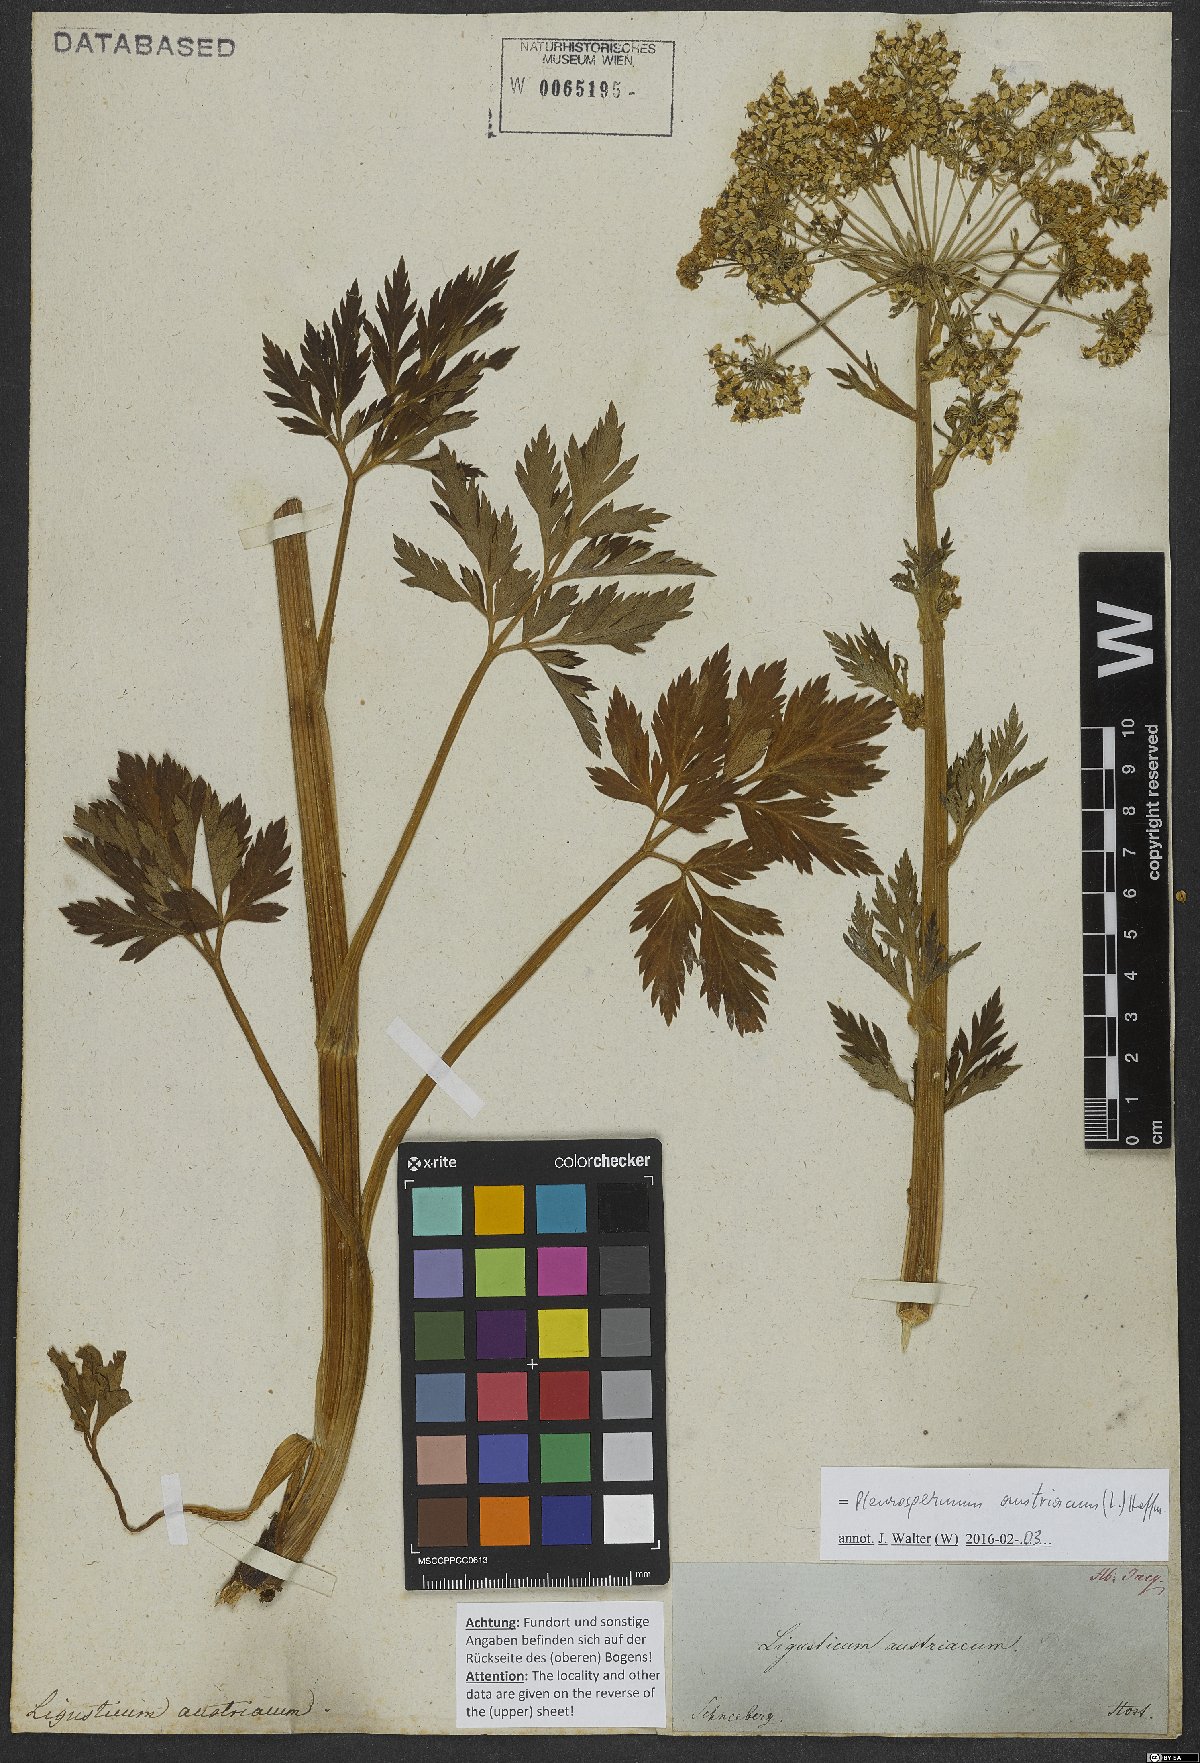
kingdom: Plantae
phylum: Tracheophyta
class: Magnoliopsida
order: Apiales
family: Apiaceae
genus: Pleurospermum
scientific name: Pleurospermum austriacum
